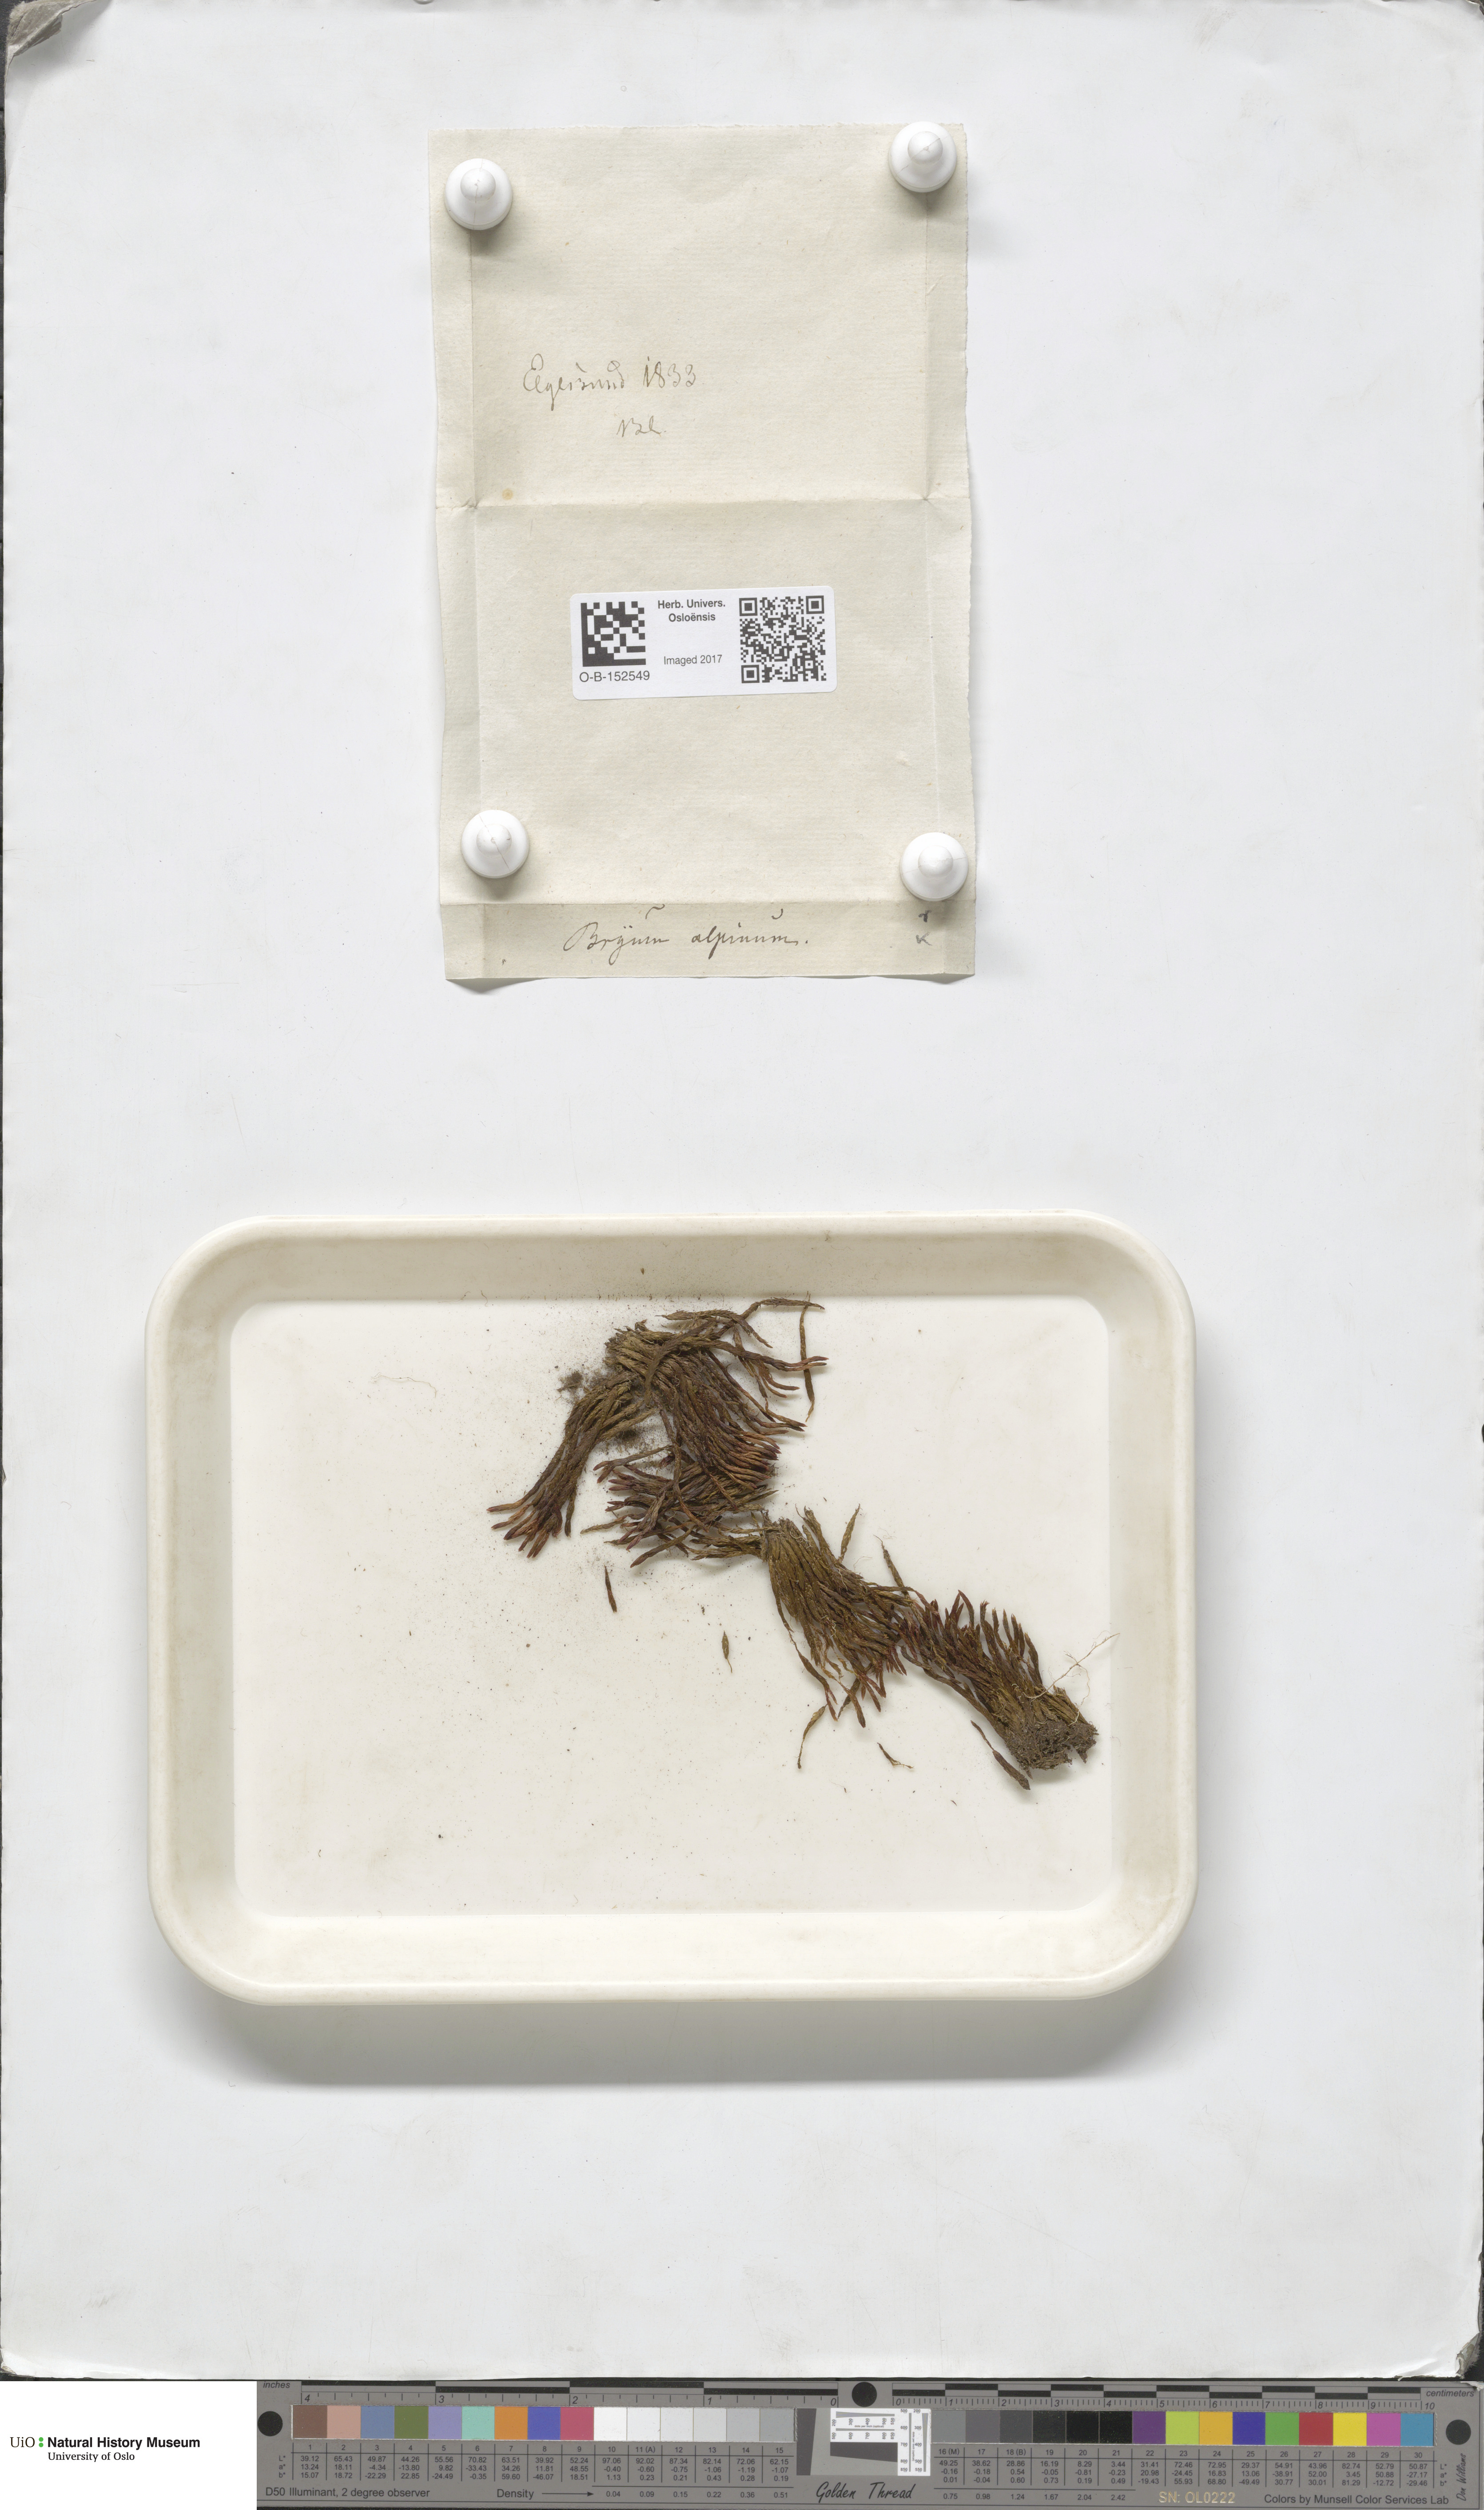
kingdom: Plantae
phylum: Bryophyta
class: Bryopsida
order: Bryales
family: Bryaceae
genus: Imbribryum
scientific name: Imbribryum alpinum
